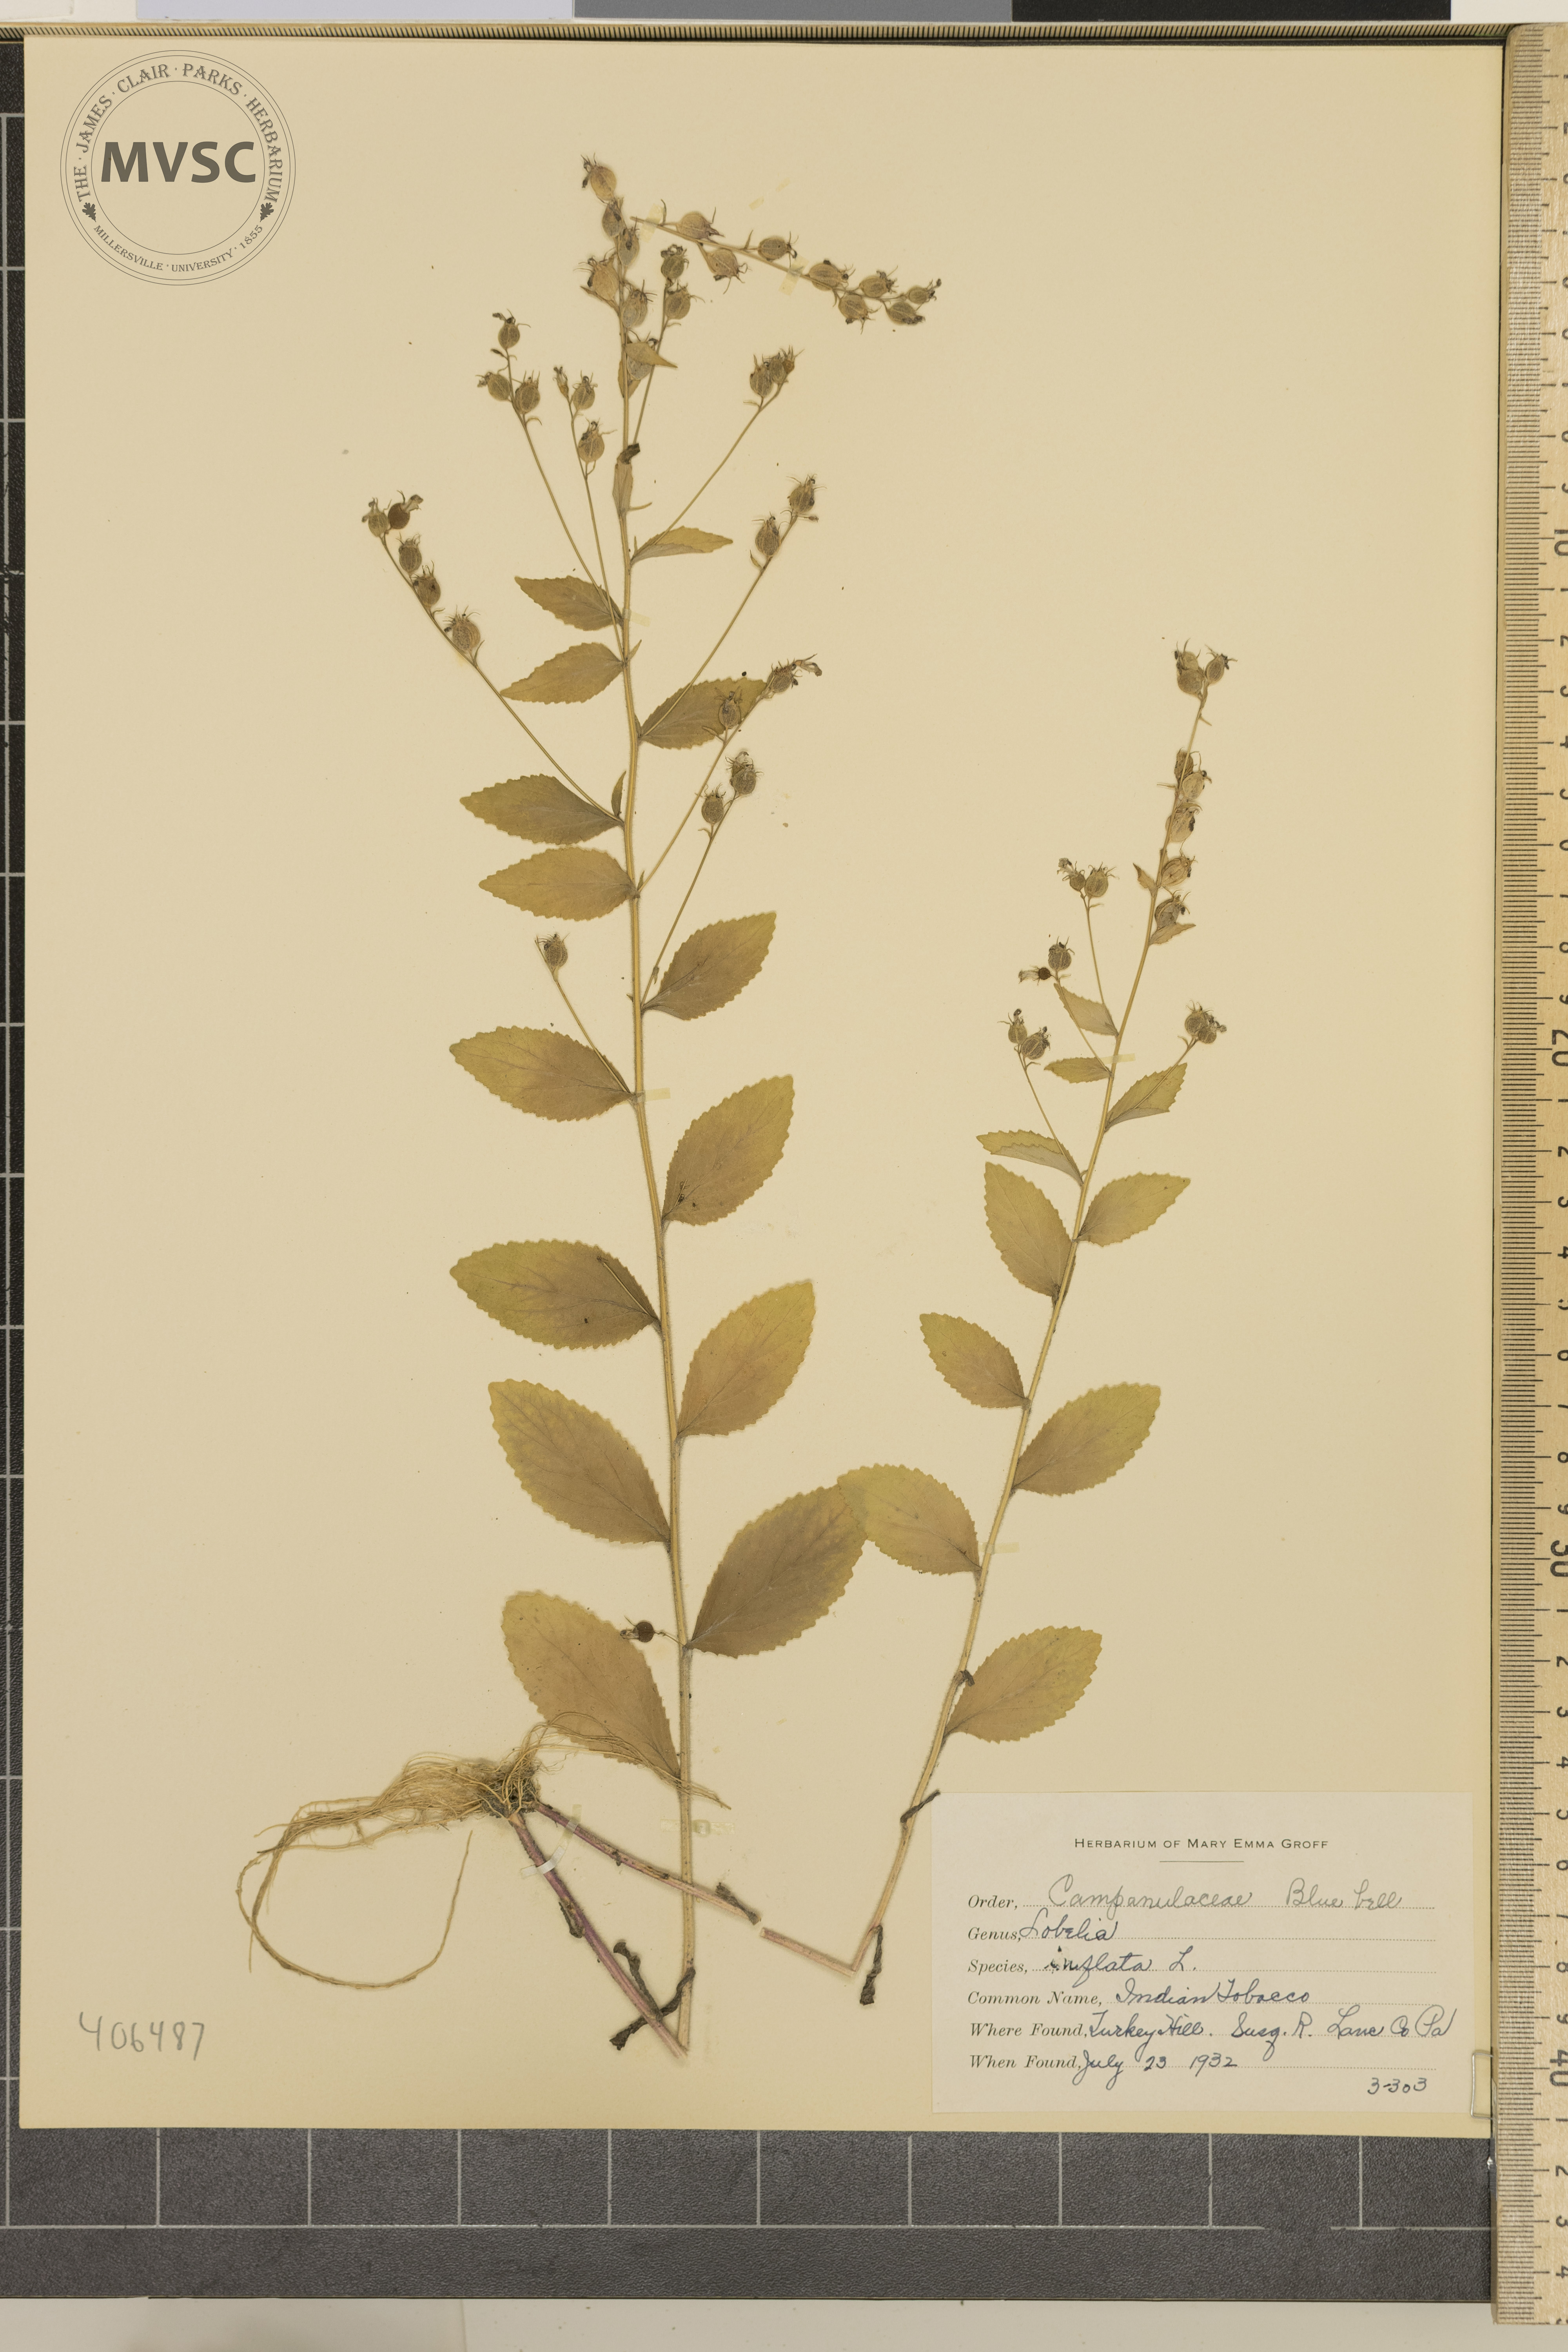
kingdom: Plantae
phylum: Tracheophyta
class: Magnoliopsida
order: Asterales
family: Campanulaceae
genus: Lobelia
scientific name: Lobelia inflata
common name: Indian Tobacco
